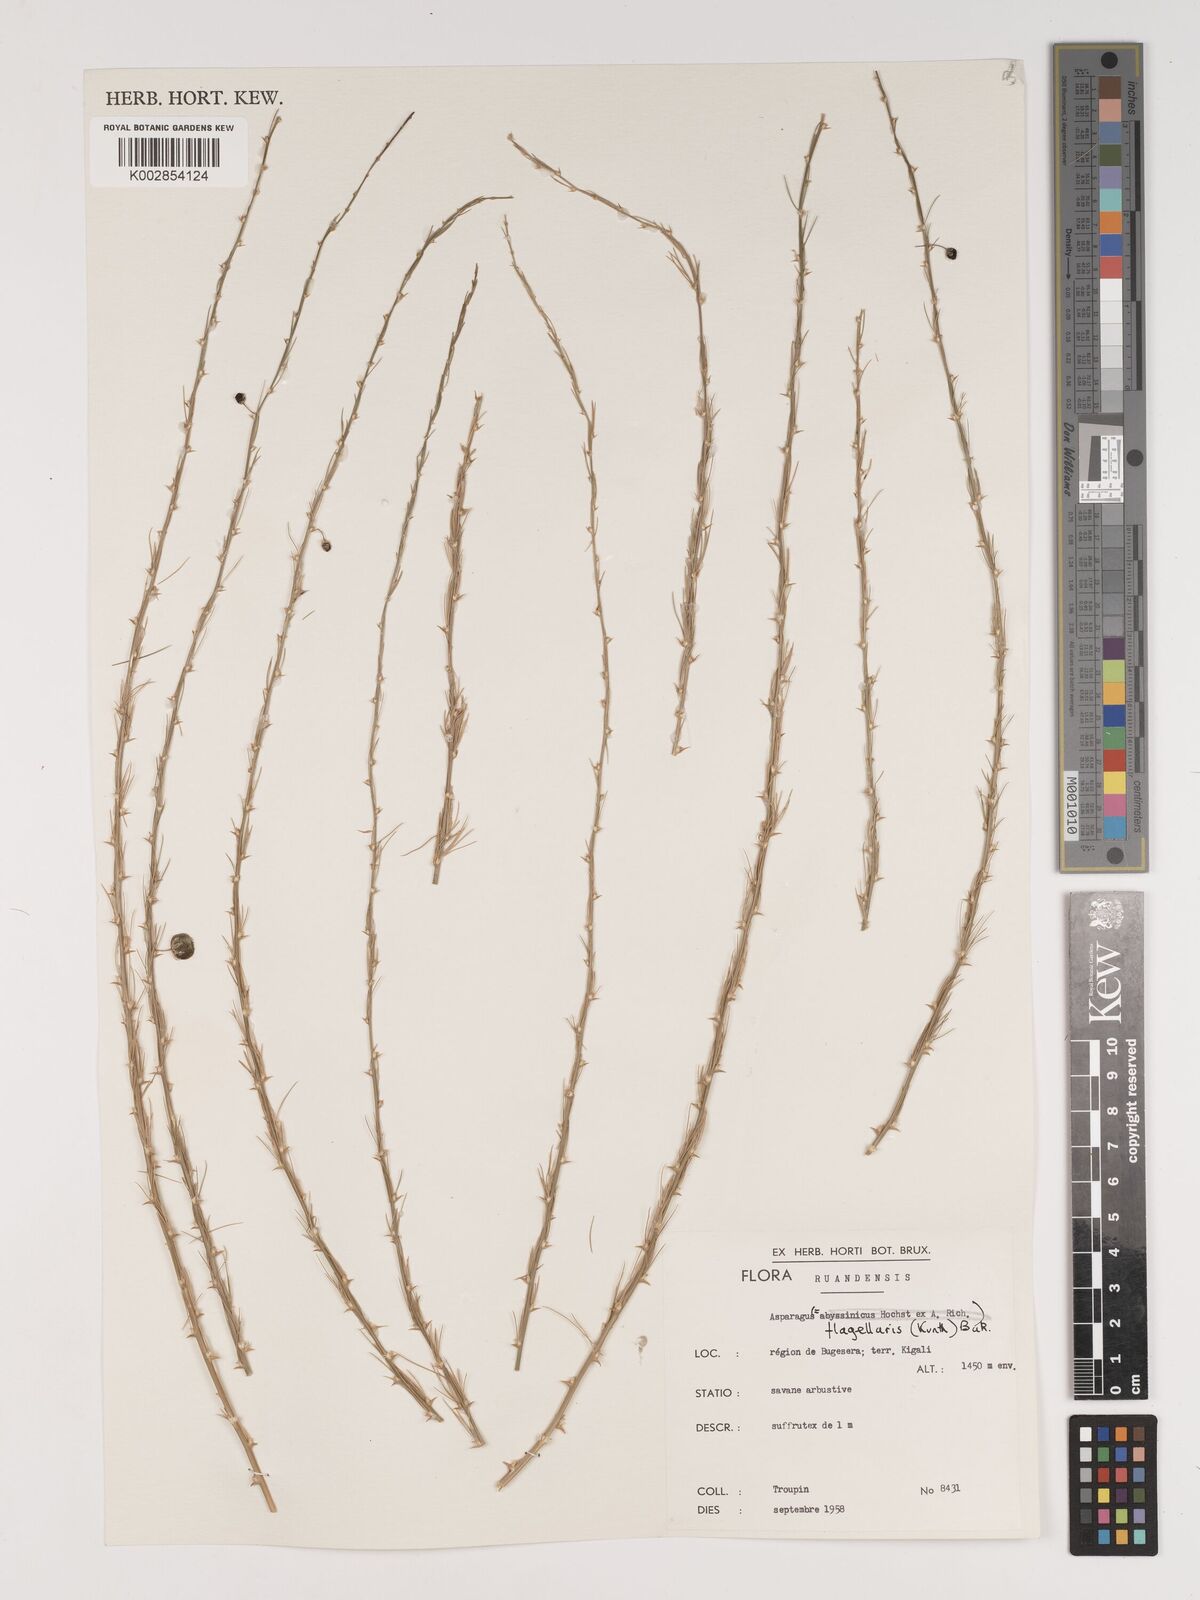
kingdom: Plantae
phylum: Tracheophyta
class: Liliopsida
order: Asparagales
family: Asparagaceae
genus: Asparagus
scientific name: Asparagus flagellaris
